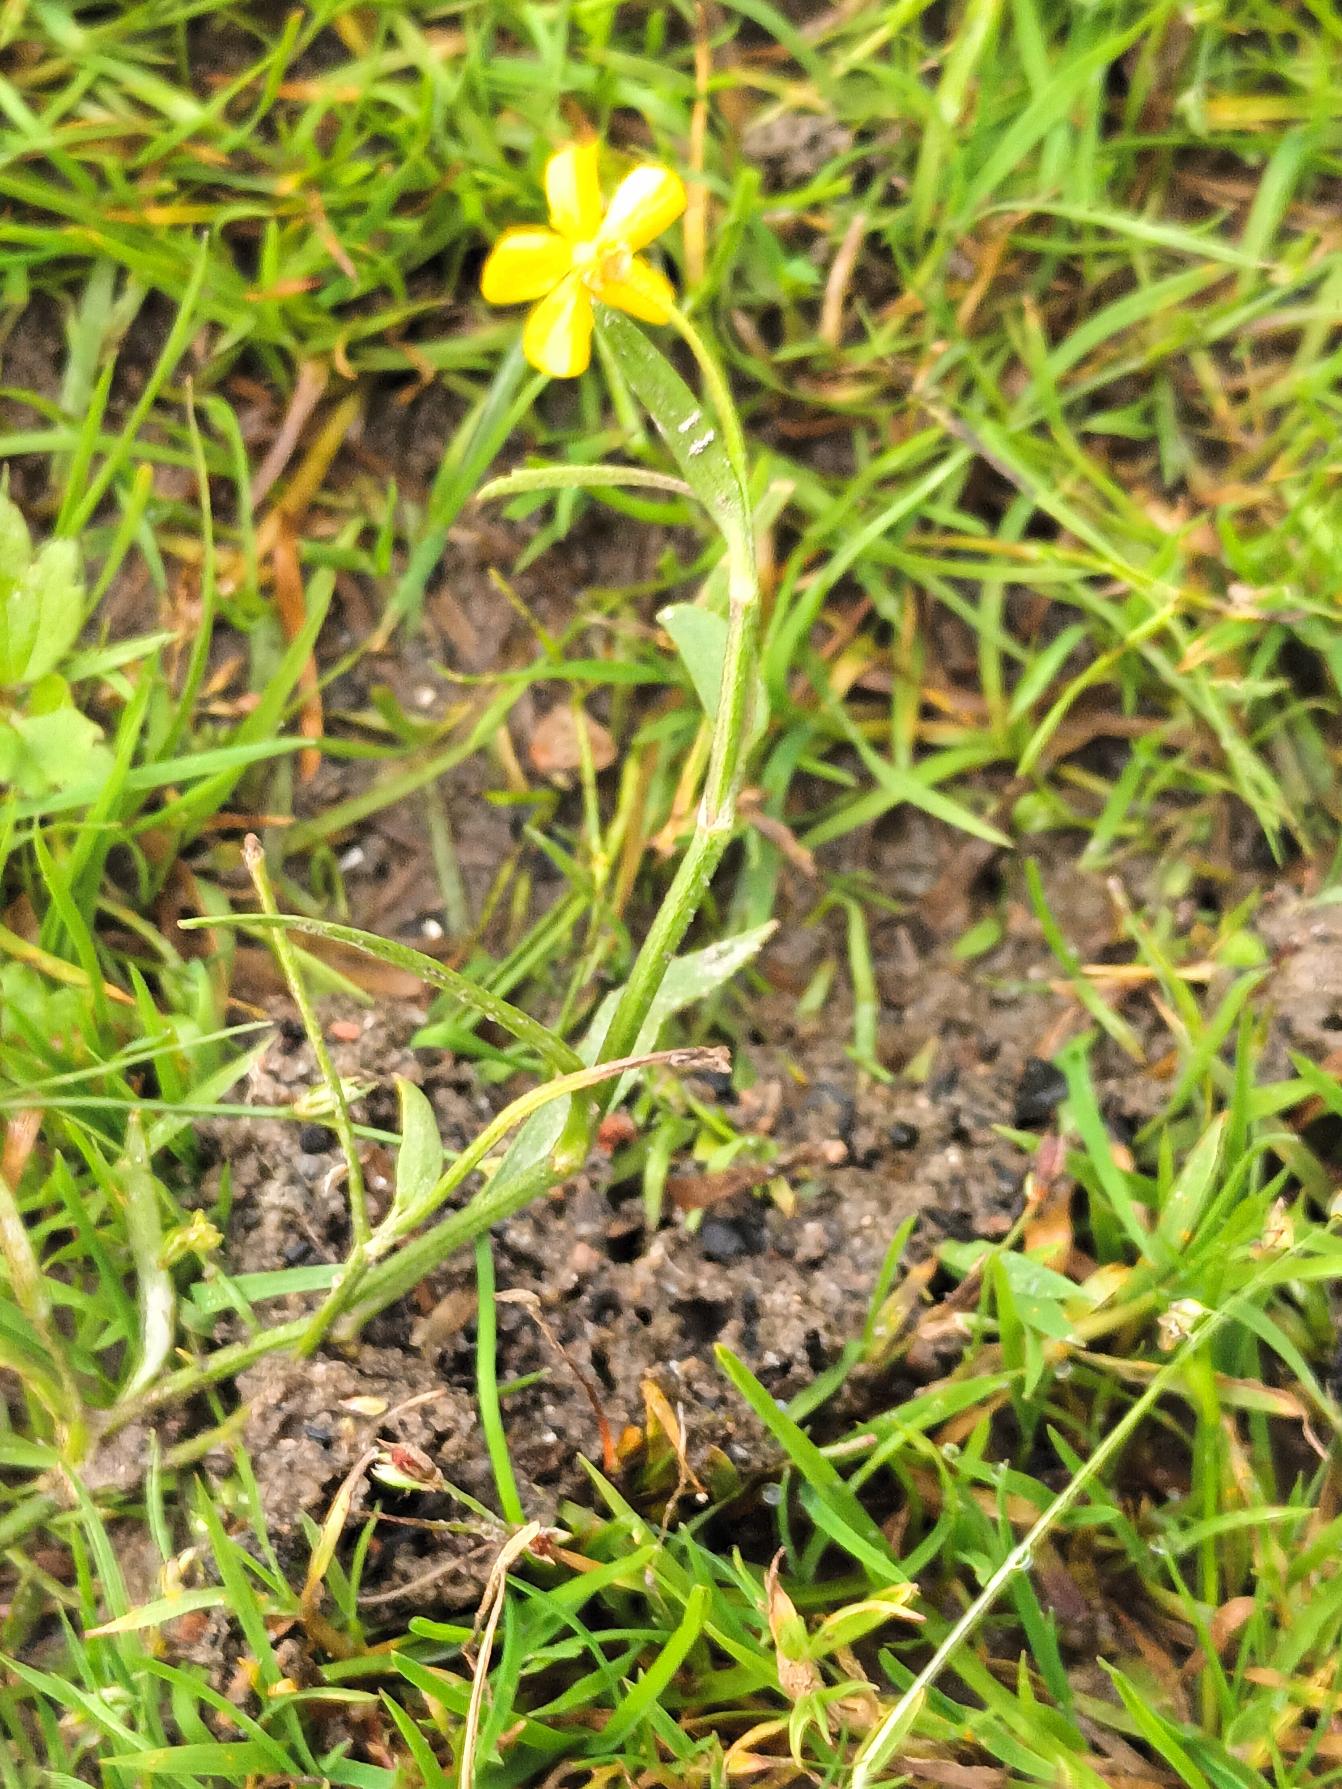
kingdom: Plantae
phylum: Tracheophyta
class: Magnoliopsida
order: Ranunculales
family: Ranunculaceae
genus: Ranunculus
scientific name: Ranunculus flammula
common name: Kær-ranunkel
